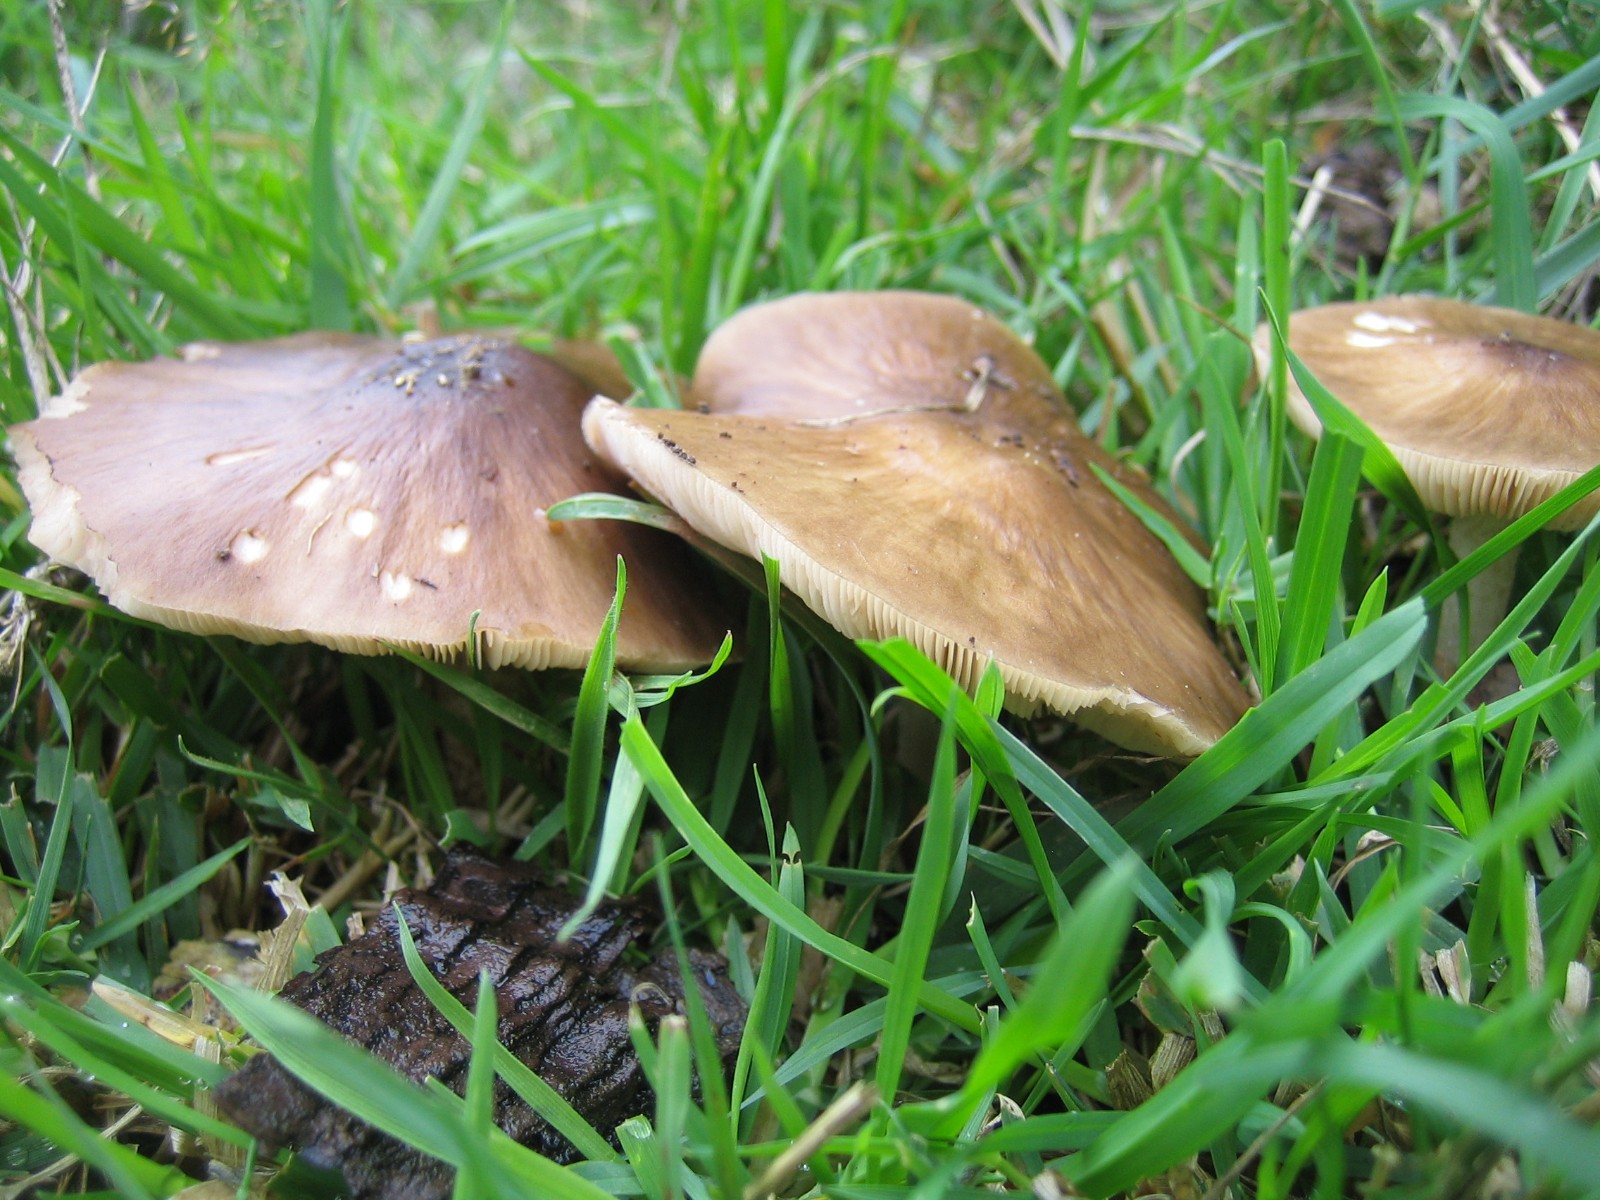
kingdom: Fungi
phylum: Basidiomycota
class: Agaricomycetes
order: Agaricales
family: Pluteaceae
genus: Pluteus
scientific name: Pluteus cervinus
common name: sodfarvet skærmhat
